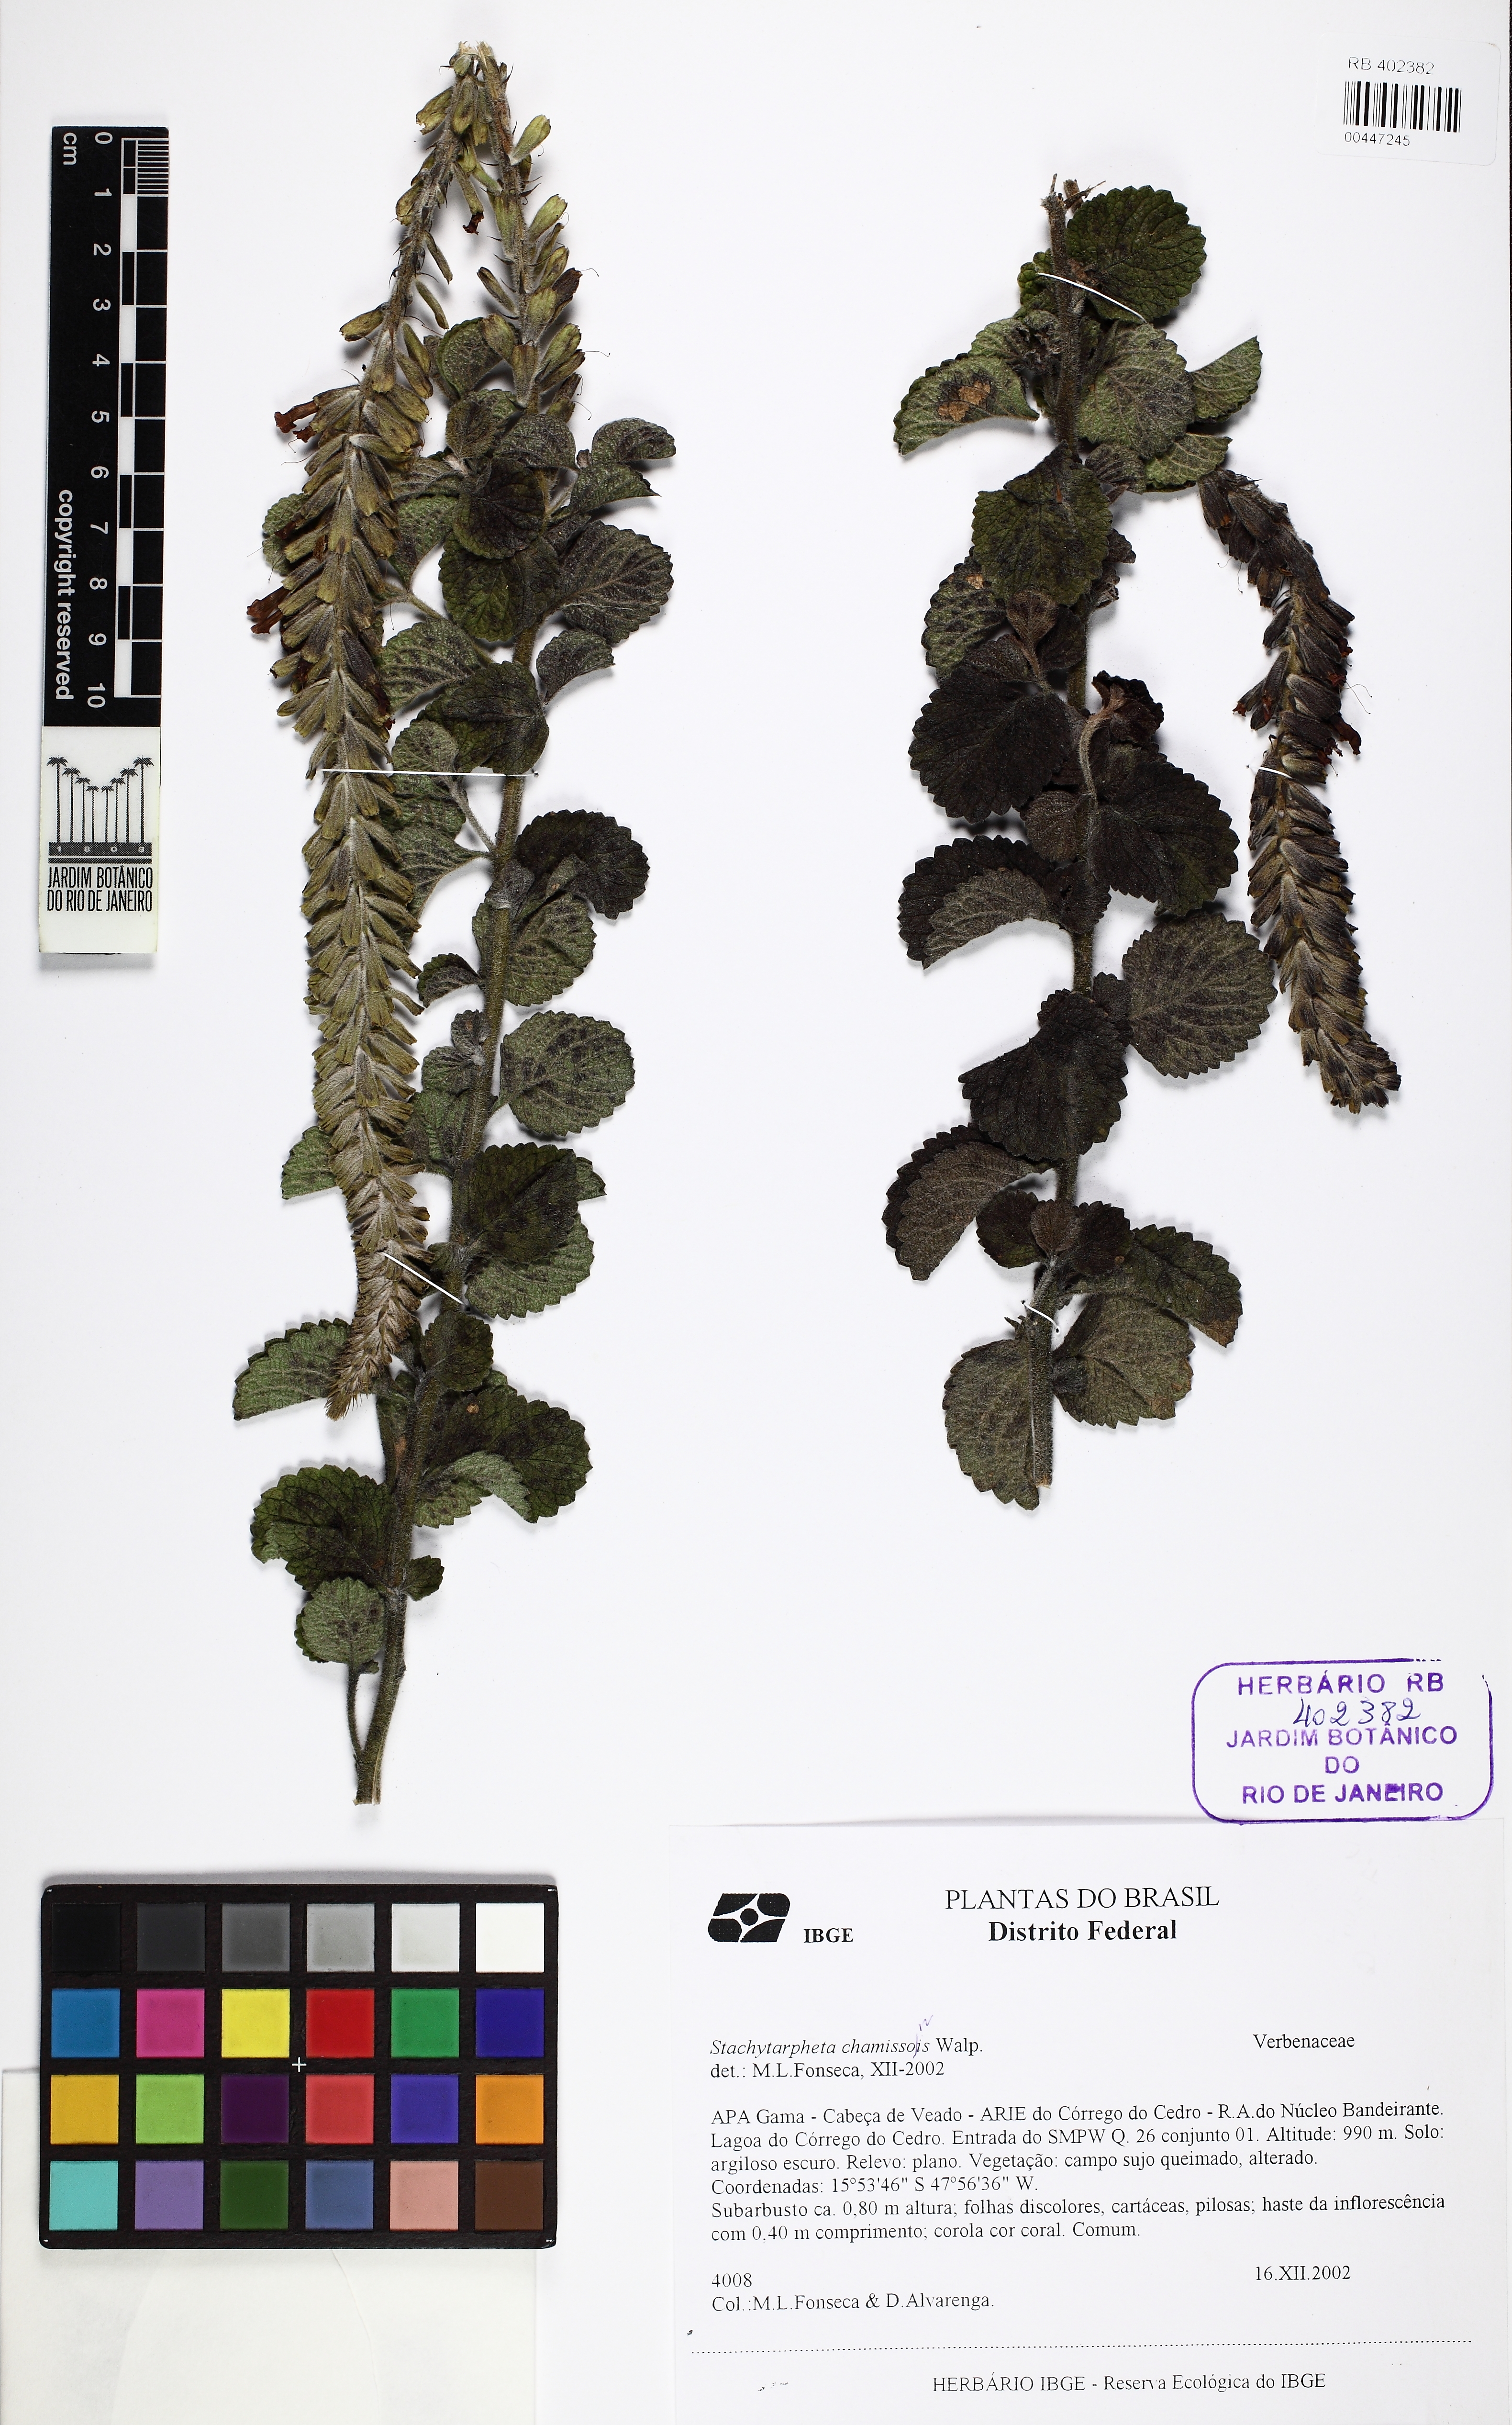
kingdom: Plantae
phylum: Tracheophyta
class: Magnoliopsida
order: Lamiales
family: Verbenaceae
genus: Stachytarpheta
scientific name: Stachytarpheta longispicata
